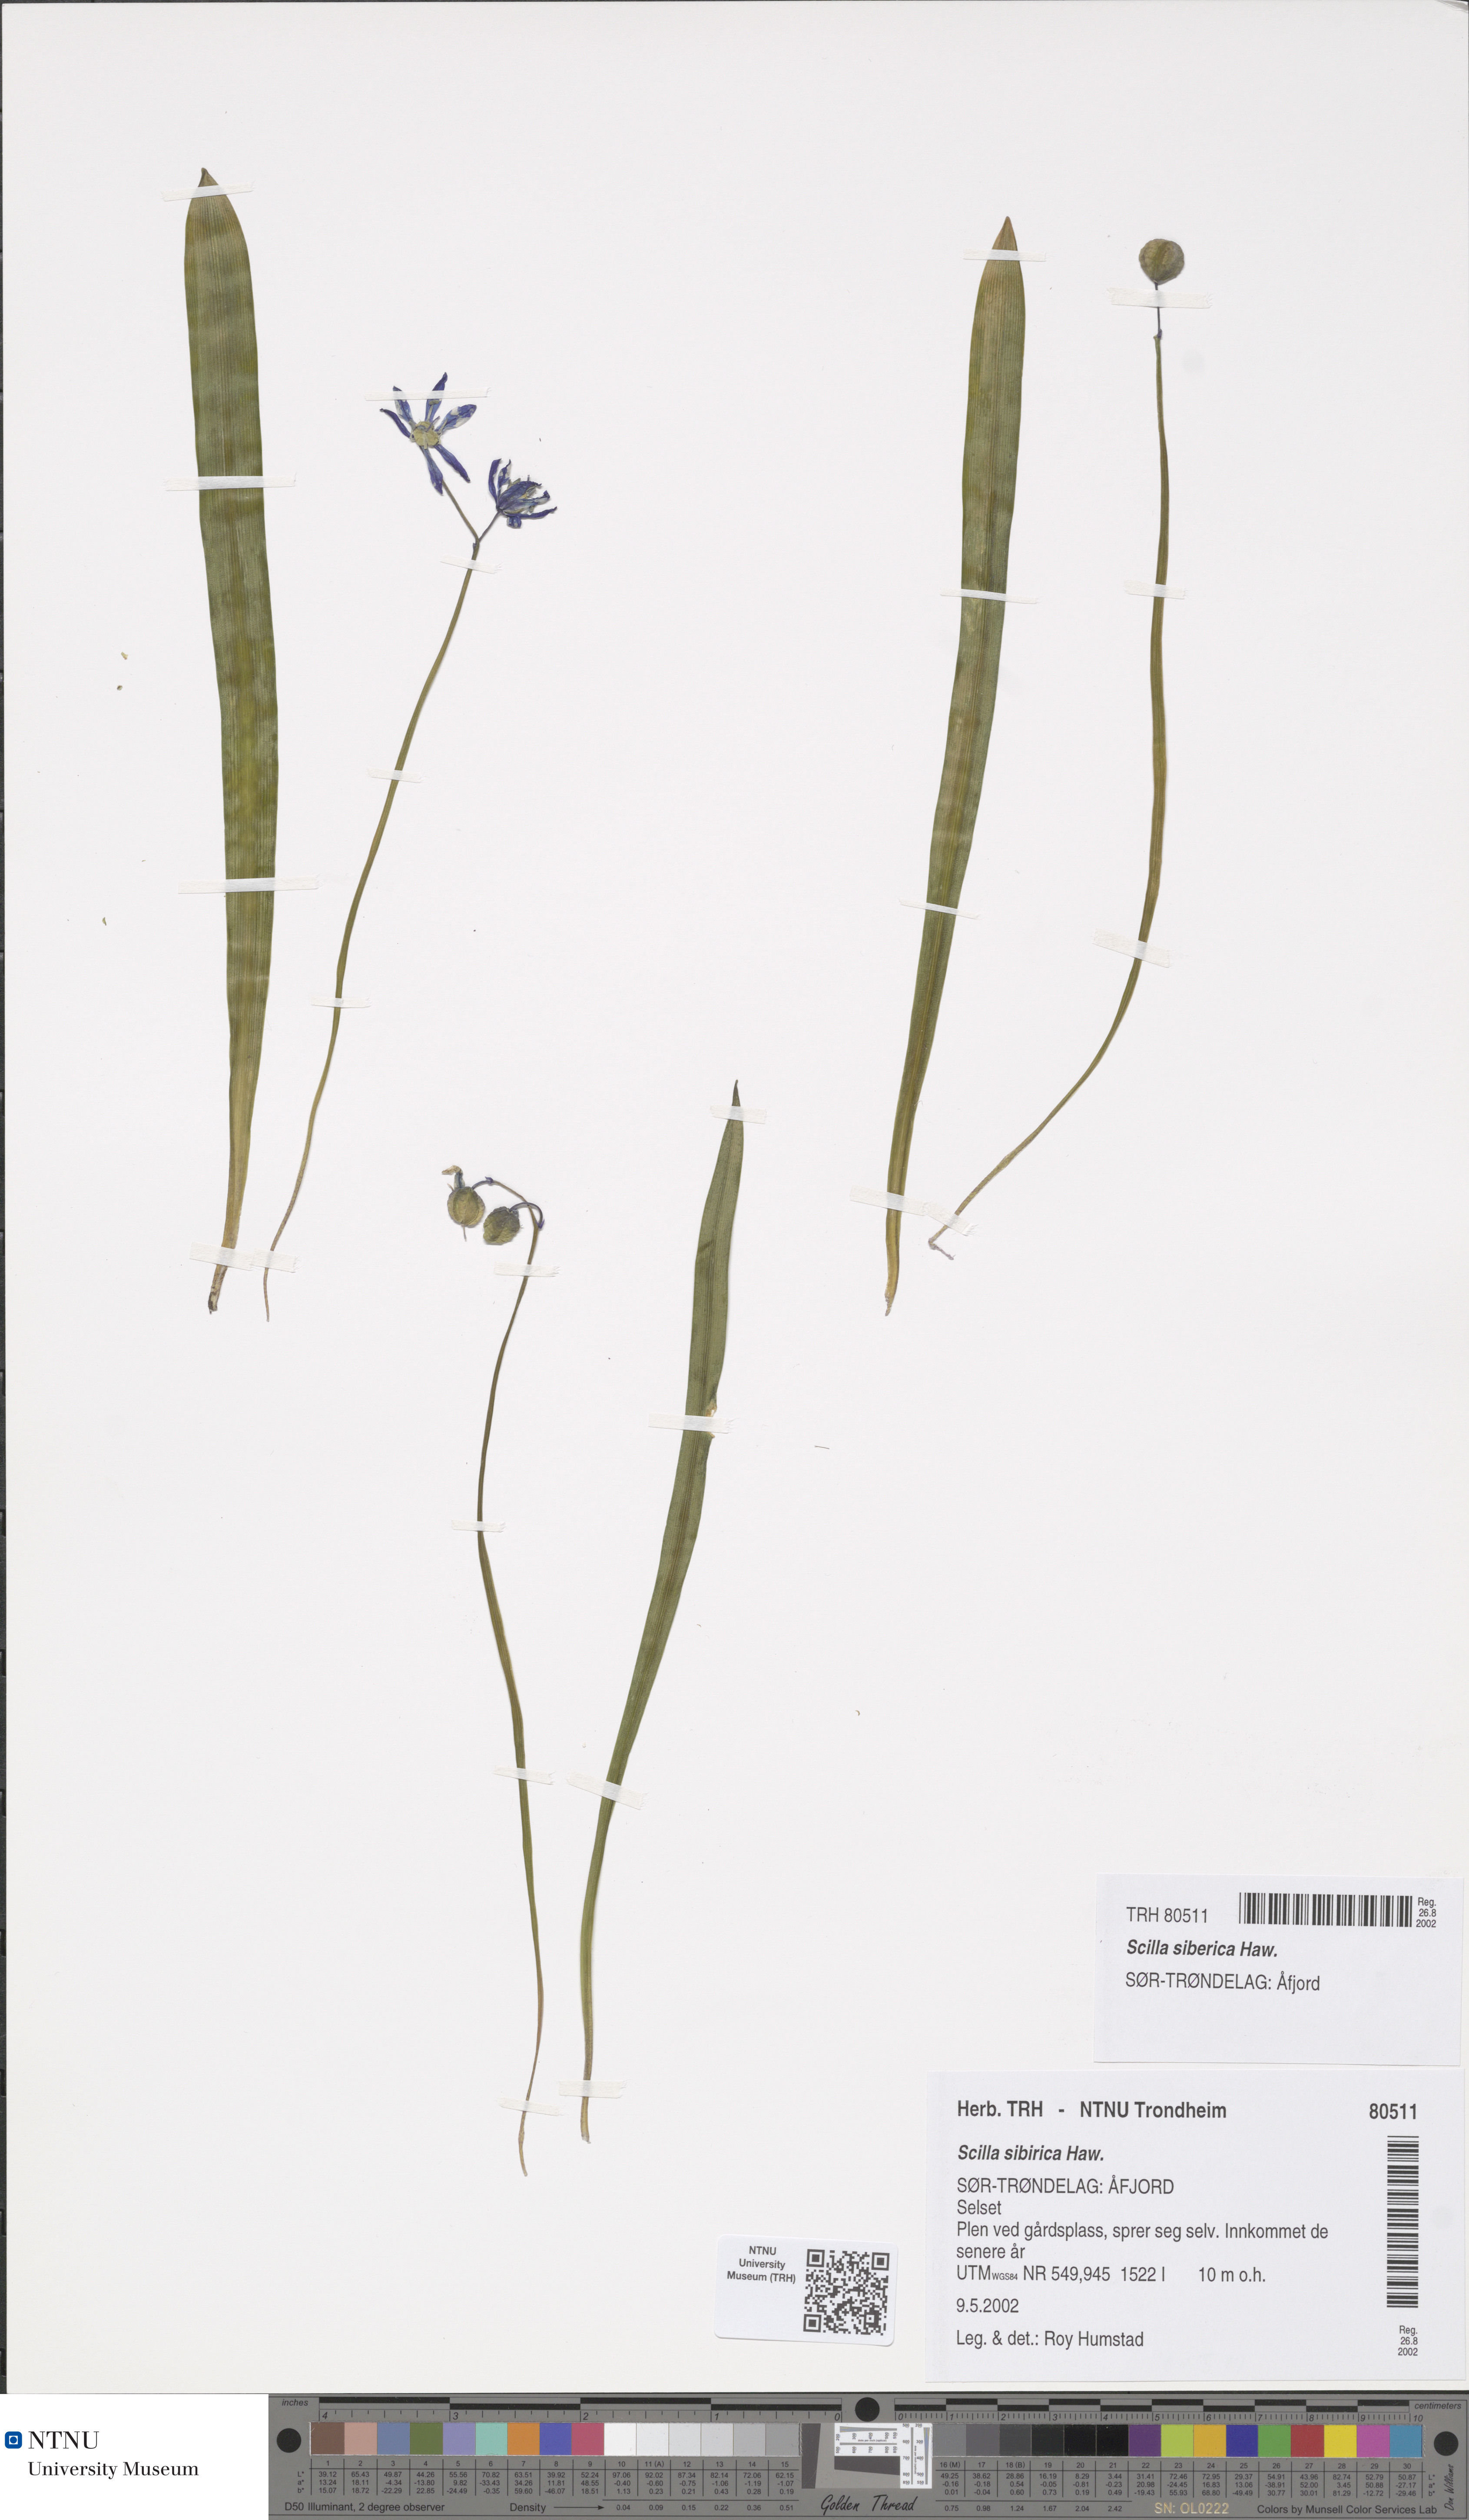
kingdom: Plantae
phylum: Tracheophyta
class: Liliopsida
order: Asparagales
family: Asparagaceae
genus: Scilla
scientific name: Scilla siberica
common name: Siberian squill
